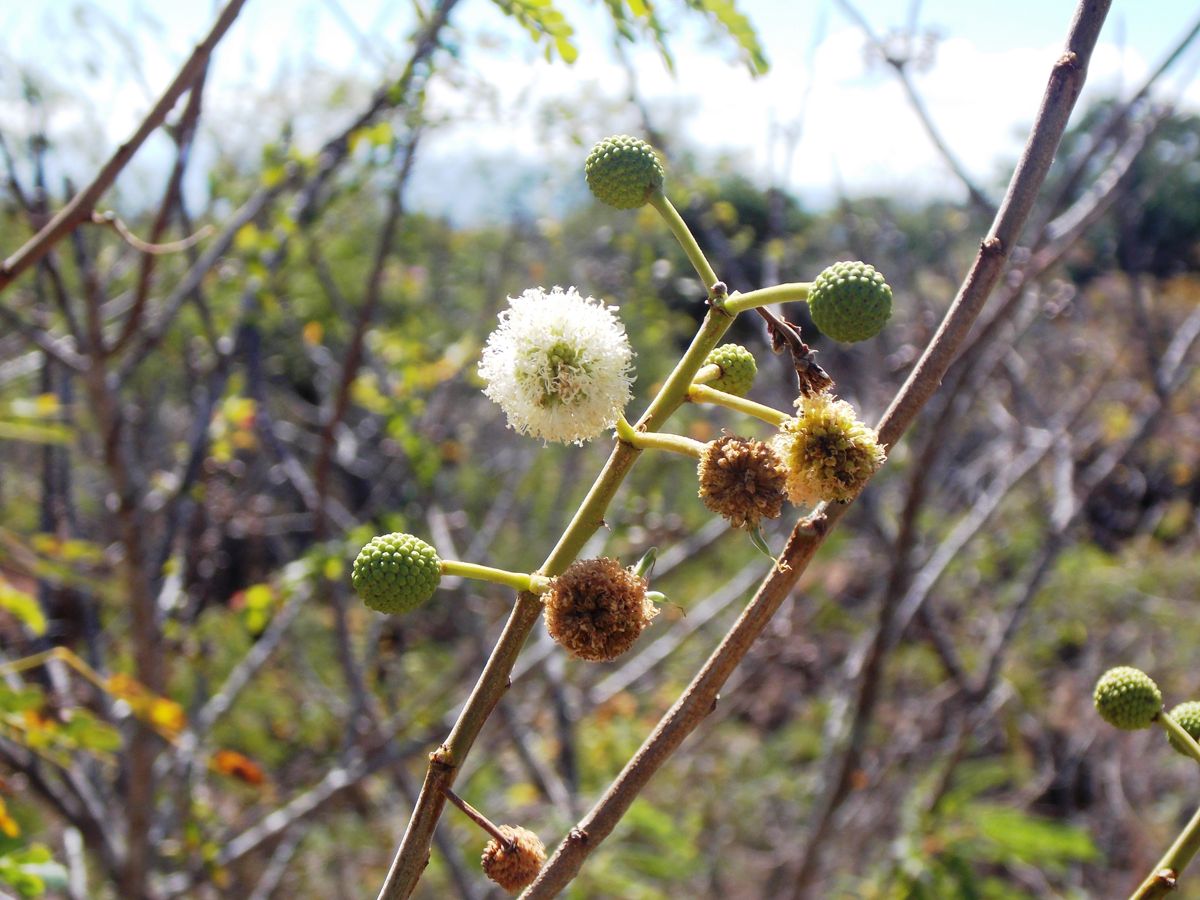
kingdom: Plantae
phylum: Tracheophyta
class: Magnoliopsida
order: Fabales
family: Fabaceae
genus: Leucaena
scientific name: Leucaena shannonii
